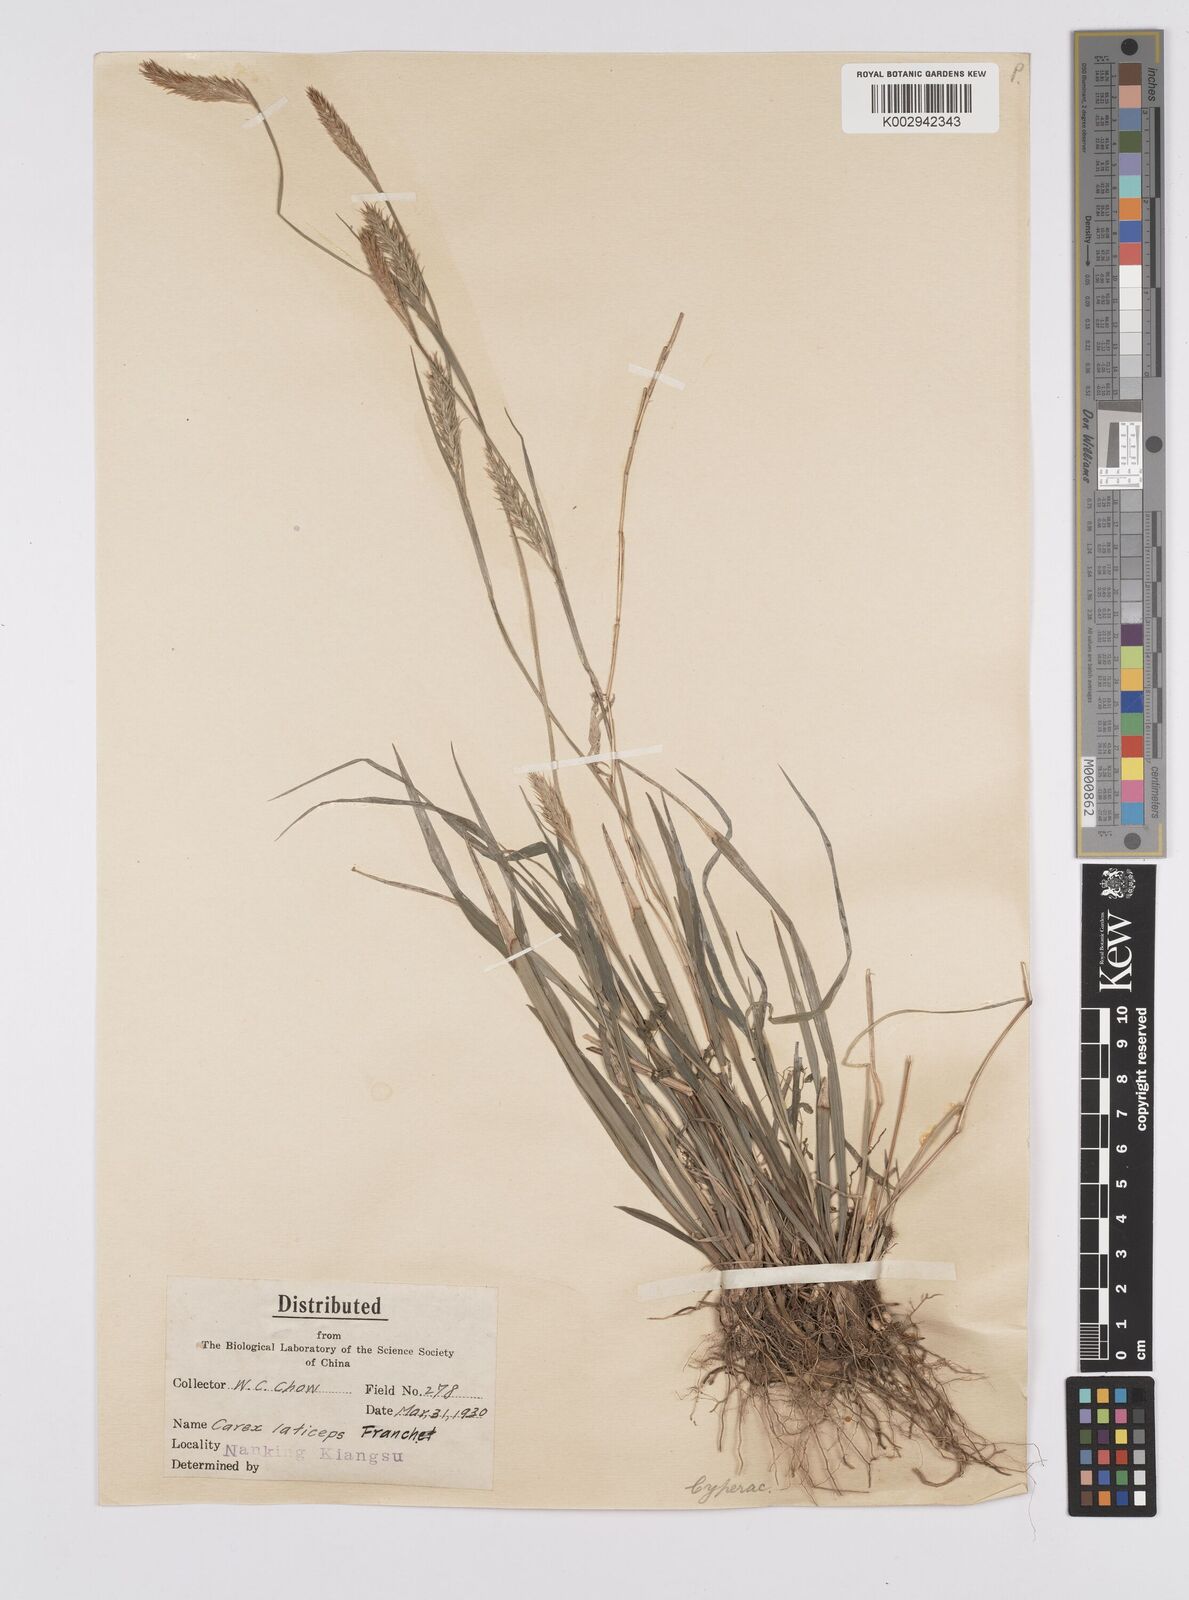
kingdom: Plantae
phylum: Tracheophyta
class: Liliopsida
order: Poales
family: Cyperaceae
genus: Carex
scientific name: Carex sampsonii
